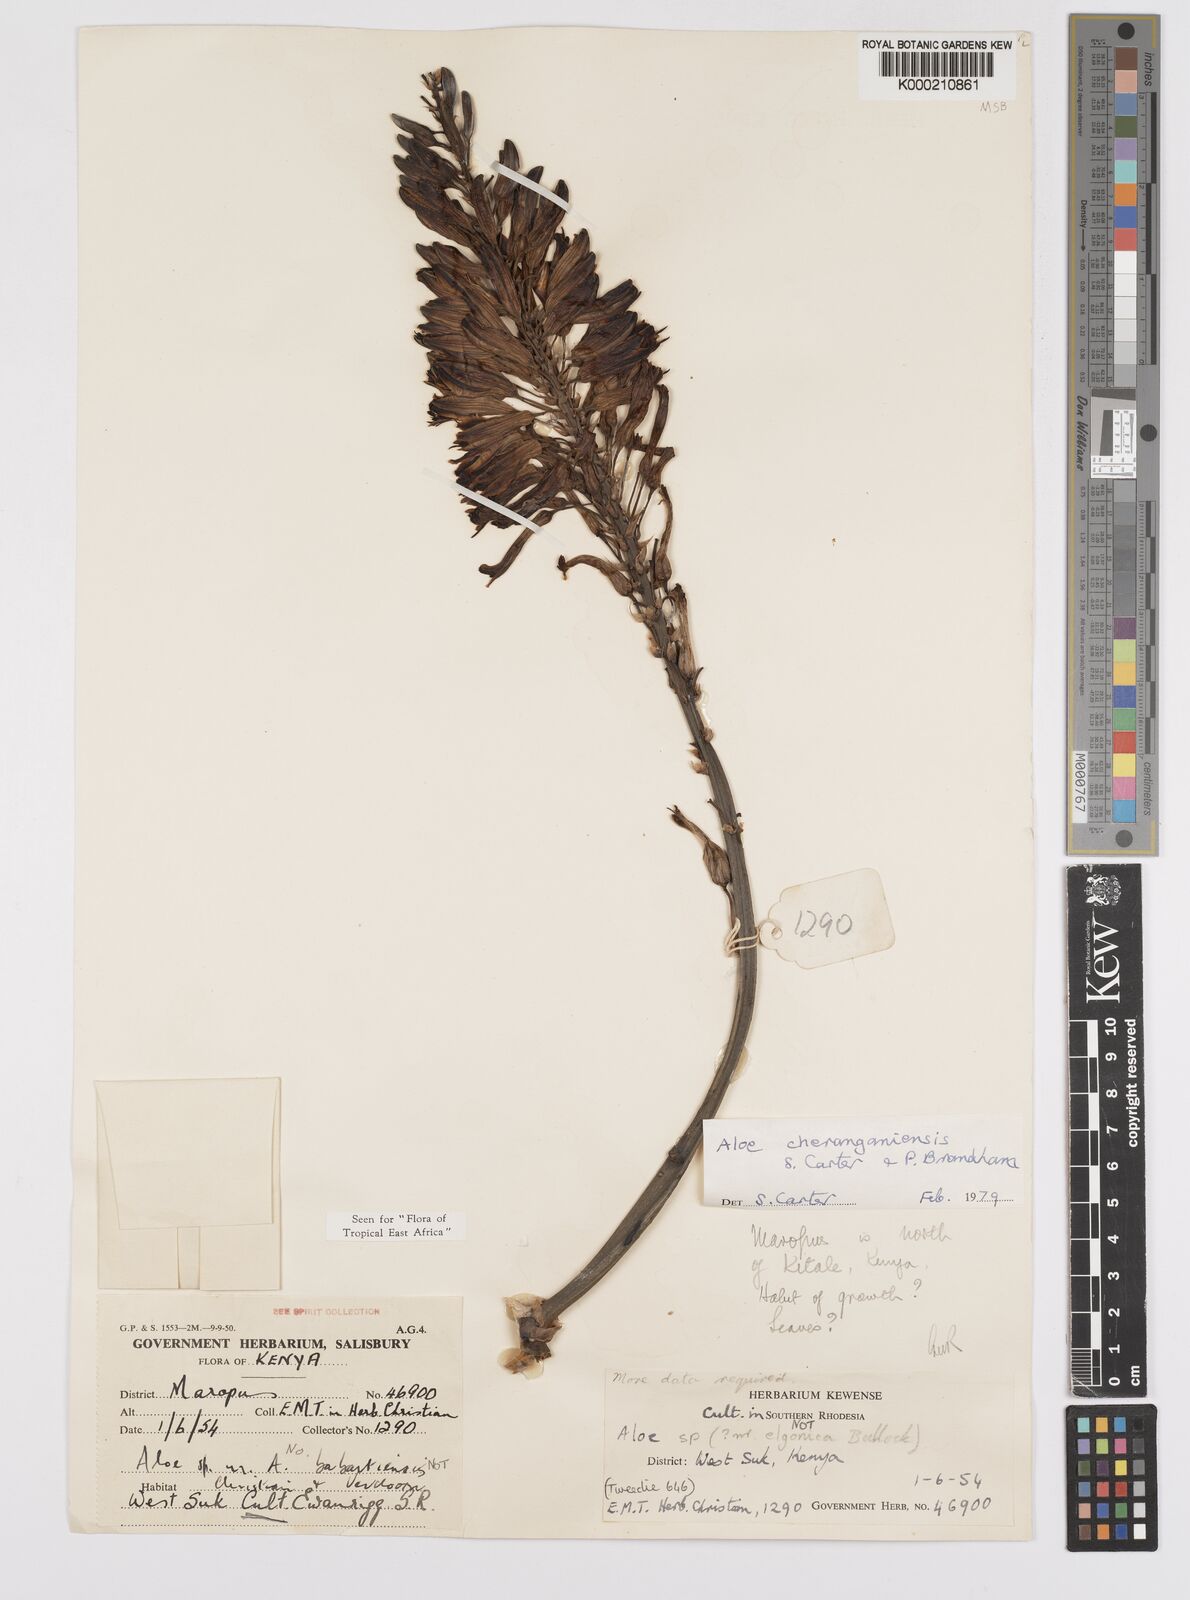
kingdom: Plantae
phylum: Tracheophyta
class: Liliopsida
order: Asparagales
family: Asphodelaceae
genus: Aloe
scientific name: Aloe cheranganiensis
